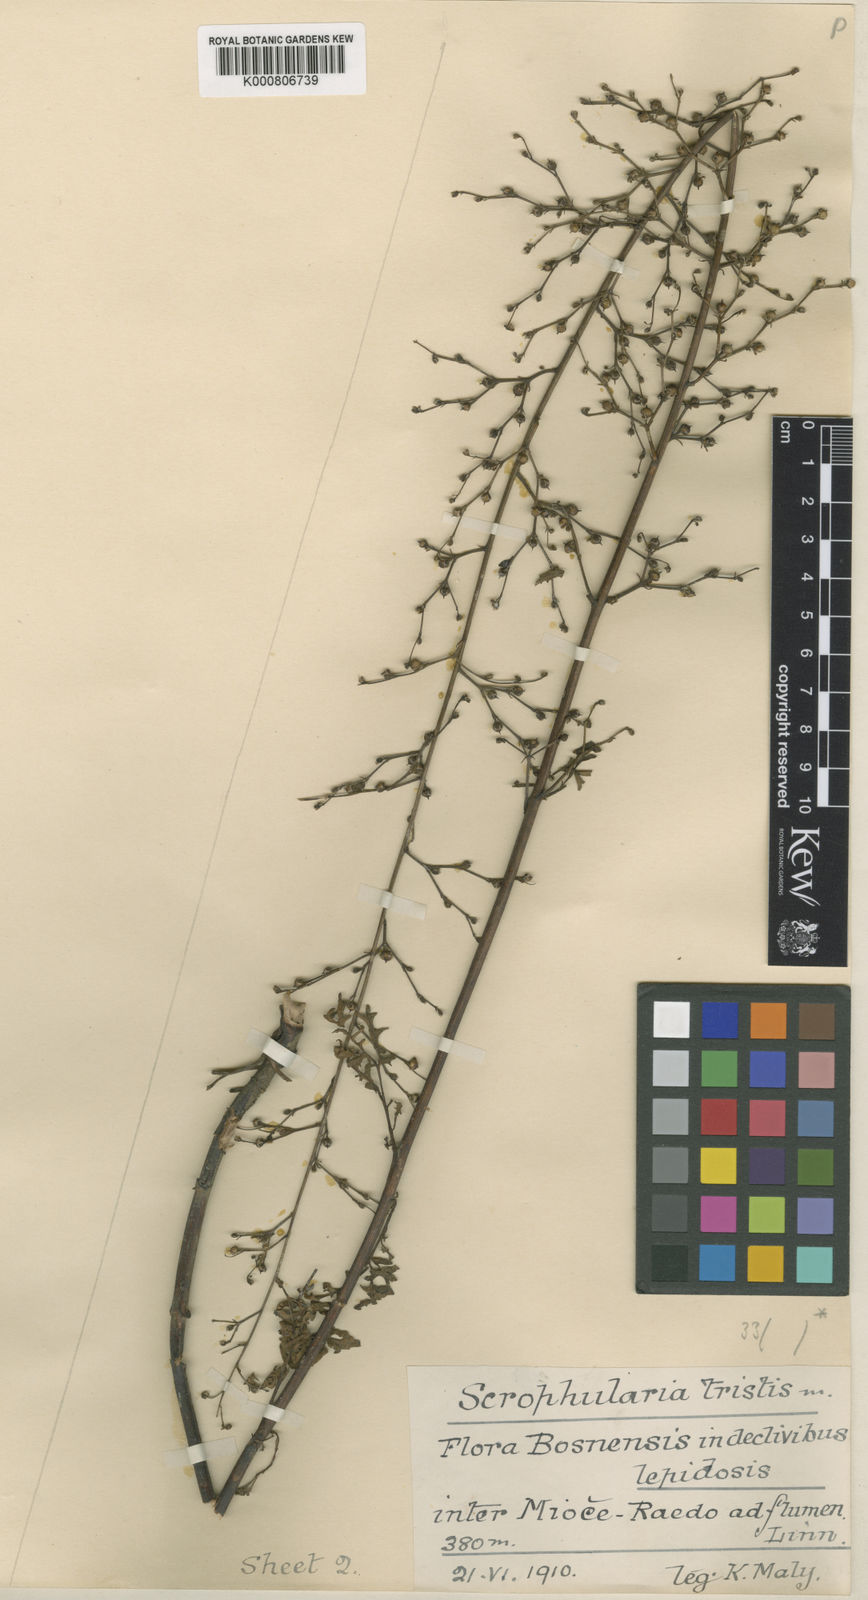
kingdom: Plantae
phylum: Tracheophyta
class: Magnoliopsida
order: Lamiales
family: Scrophulariaceae
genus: Scrophularia
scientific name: Scrophularia
